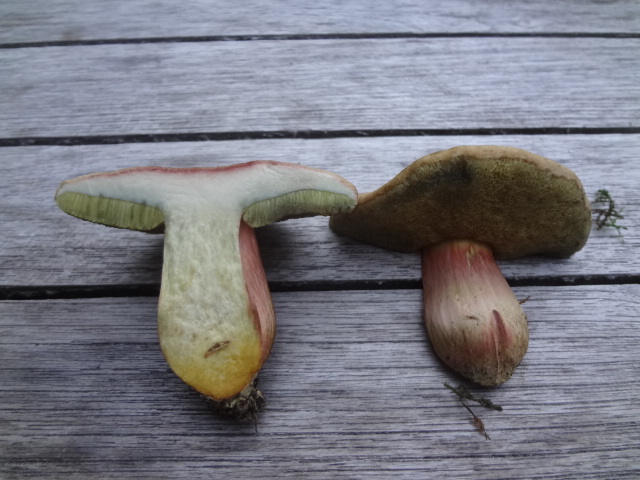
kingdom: Fungi
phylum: Basidiomycota
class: Agaricomycetes
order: Boletales
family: Boletaceae
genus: Hortiboletus
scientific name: Hortiboletus rubellus
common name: blodrød rørhat
